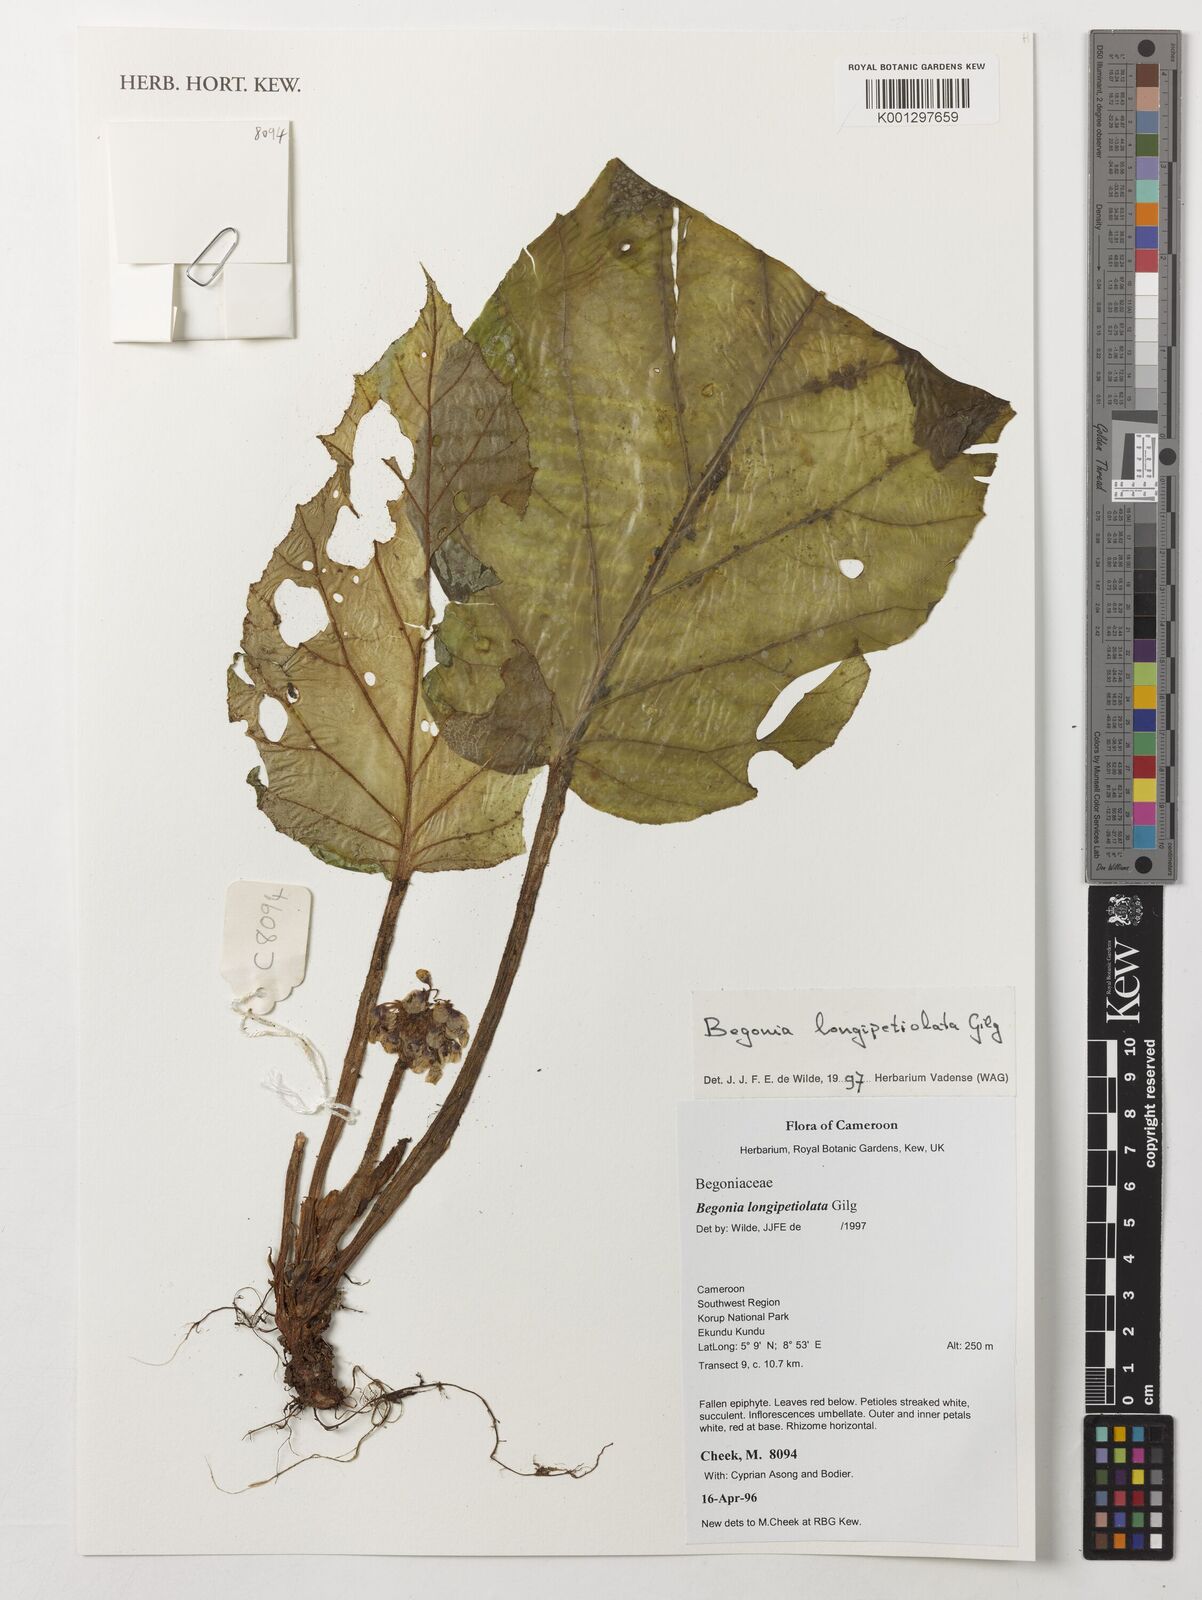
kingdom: Plantae
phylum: Tracheophyta
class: Magnoliopsida
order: Cucurbitales
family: Begoniaceae
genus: Begonia
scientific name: Begonia longipetiolata
